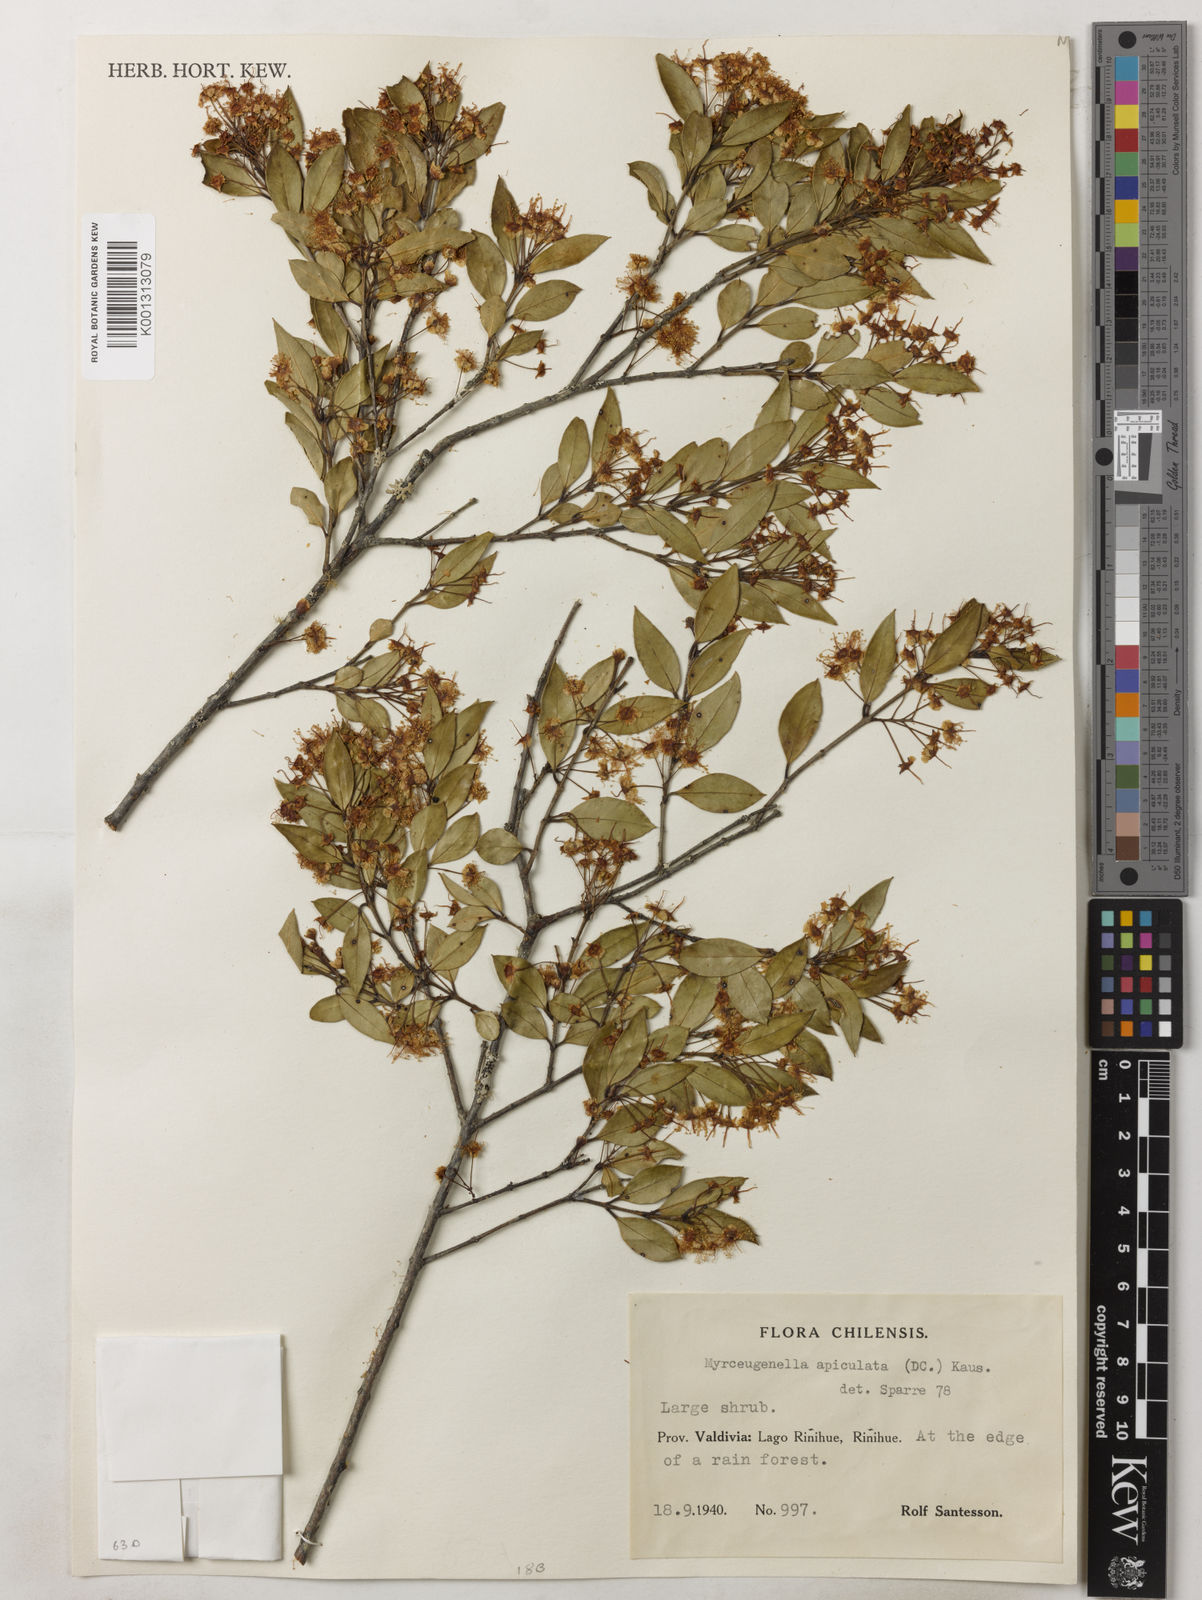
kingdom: Plantae
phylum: Tracheophyta
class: Magnoliopsida
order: Myrtales
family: Myrtaceae
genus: Luma
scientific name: Luma apiculata
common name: Chilean myrtle
